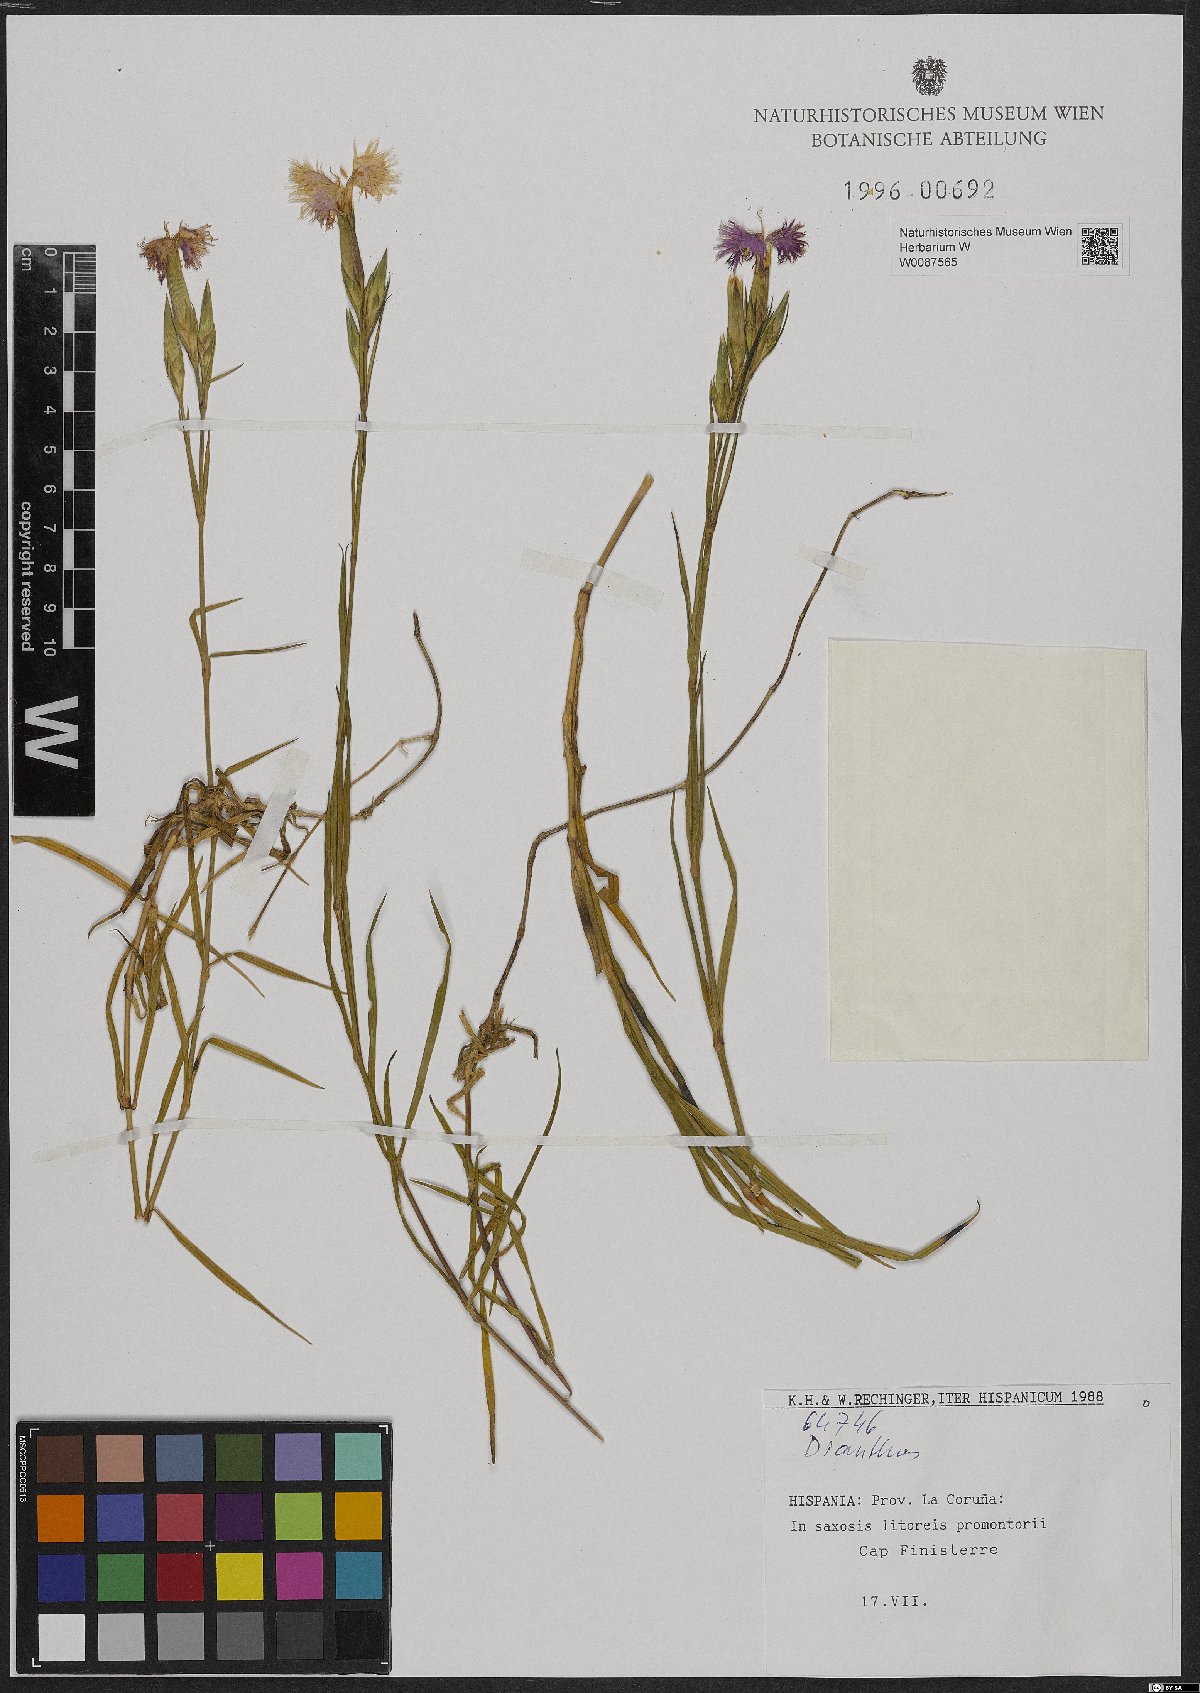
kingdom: Plantae
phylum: Tracheophyta
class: Magnoliopsida
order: Caryophyllales
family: Caryophyllaceae
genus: Dianthus
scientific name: Dianthus
